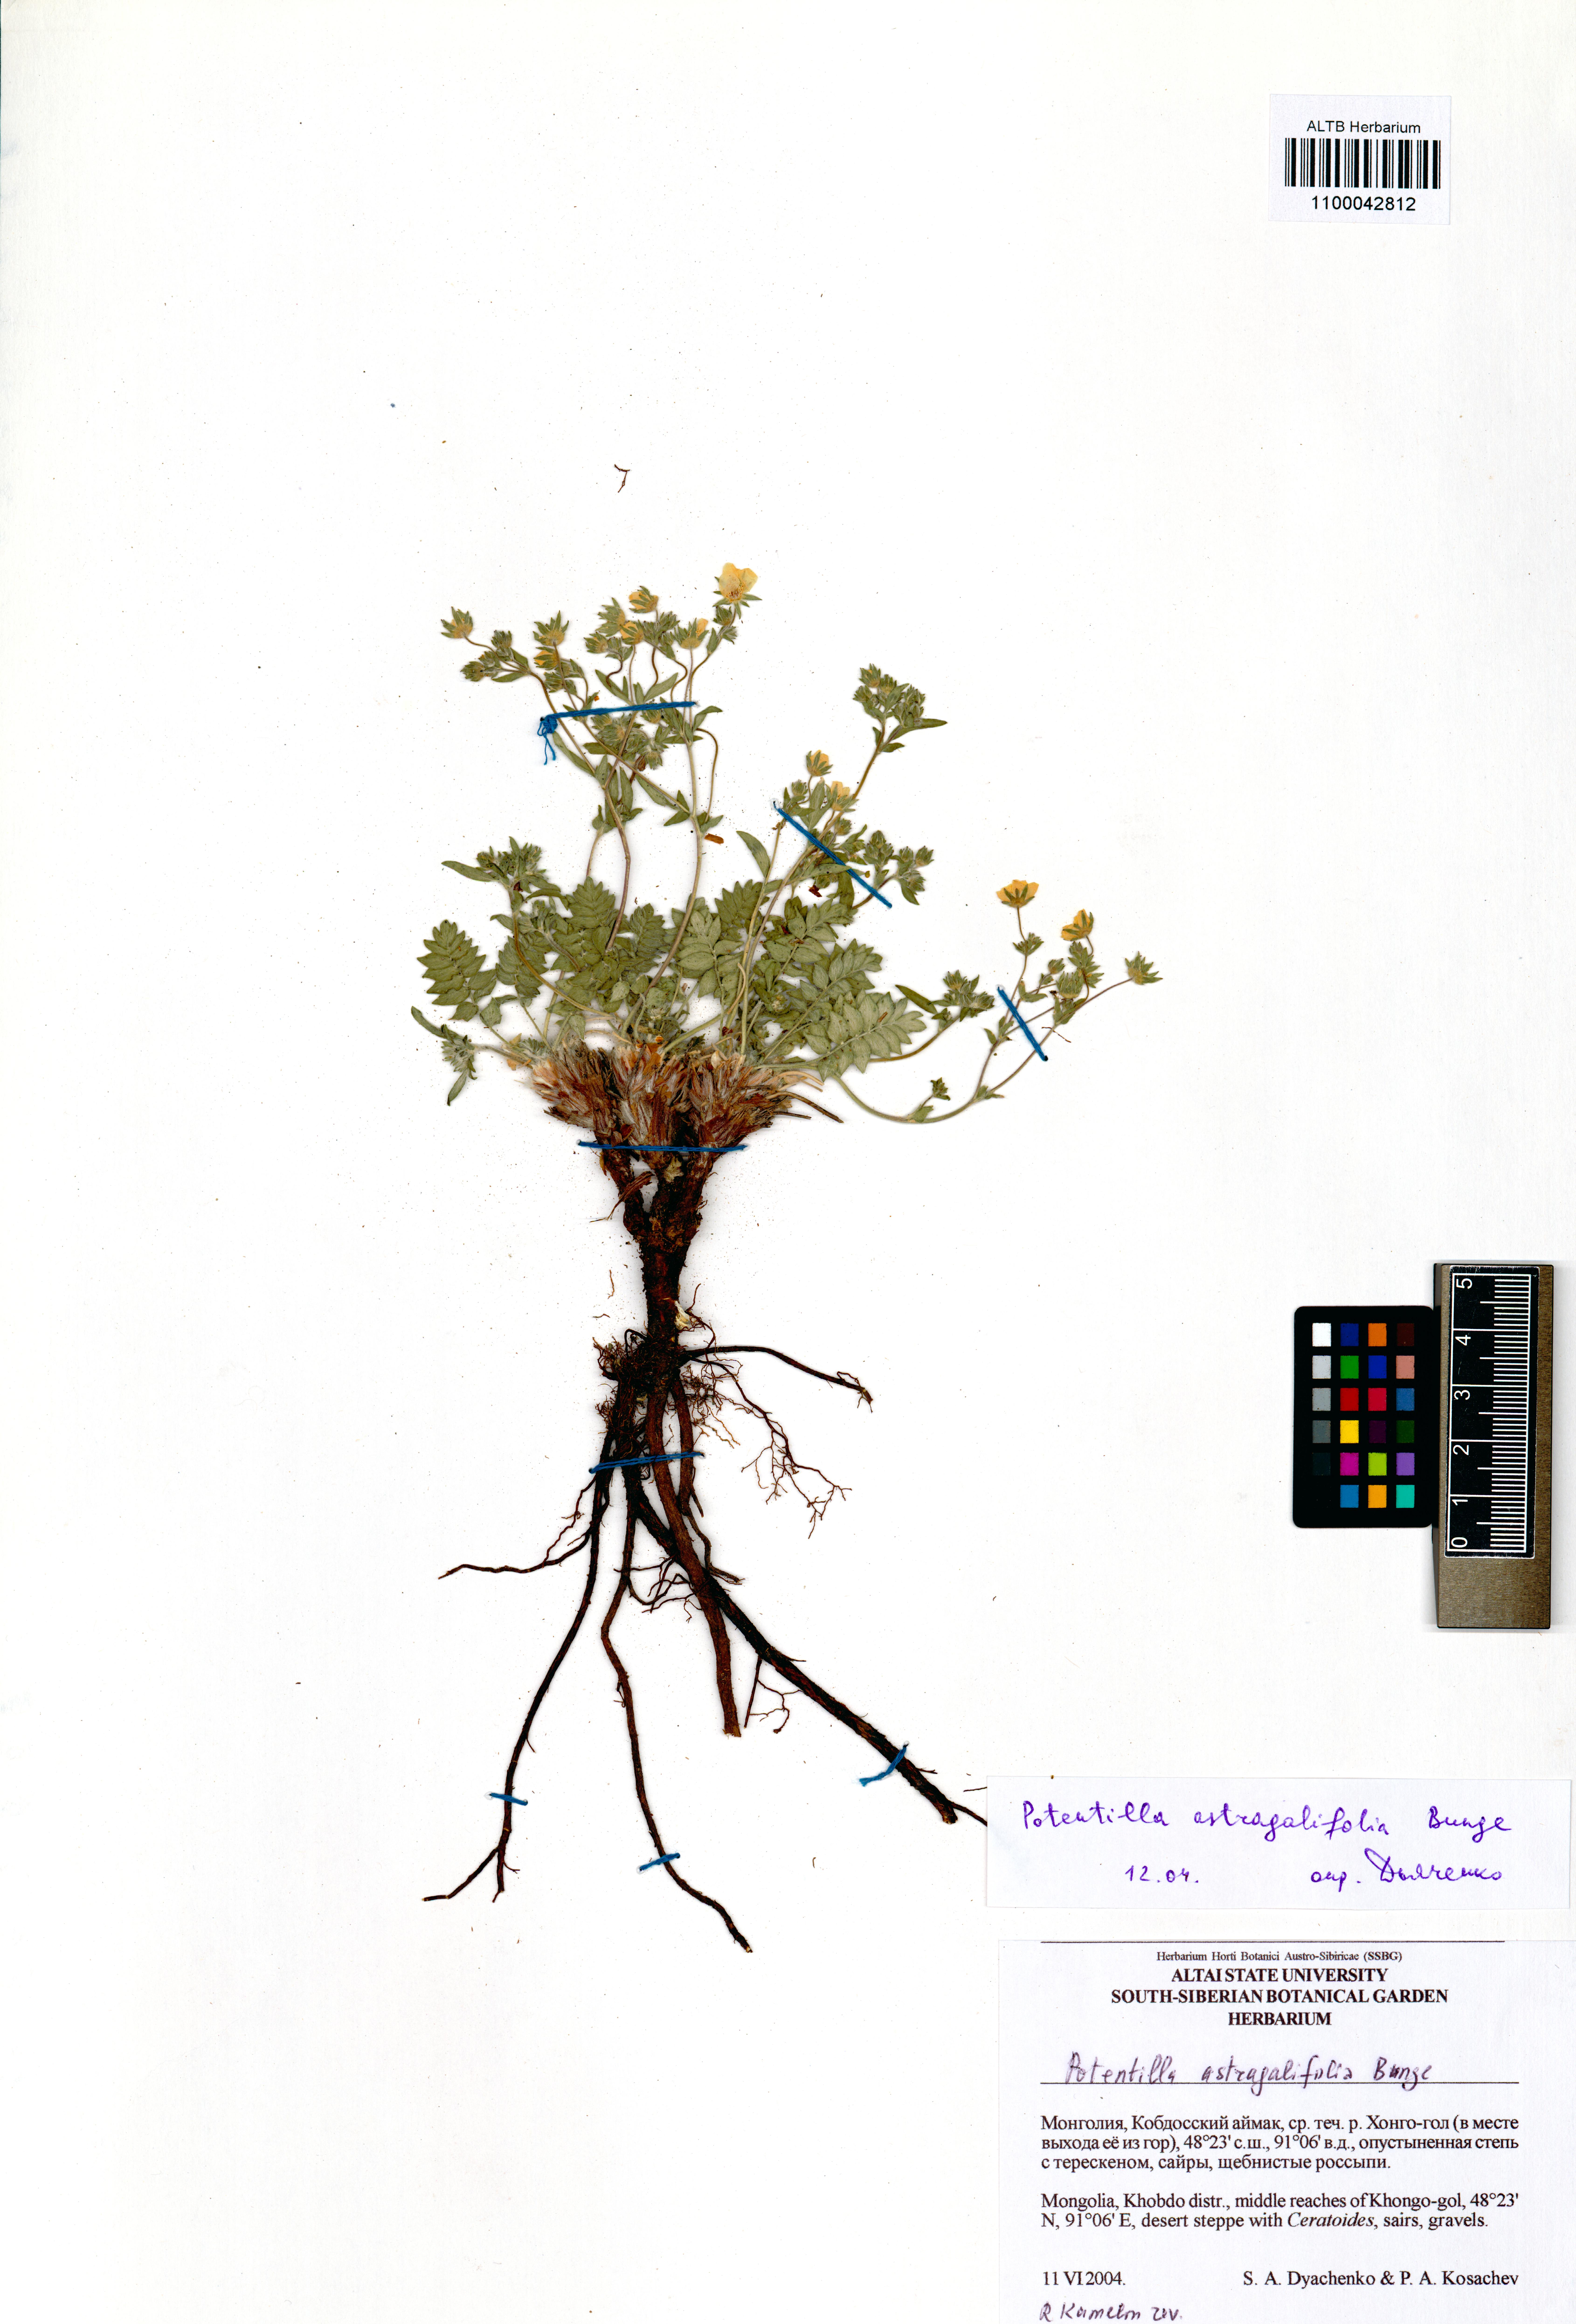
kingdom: Plantae
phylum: Tracheophyta
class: Magnoliopsida
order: Rosales
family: Rosaceae
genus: Potentilla
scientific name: Potentilla astragalifolia
